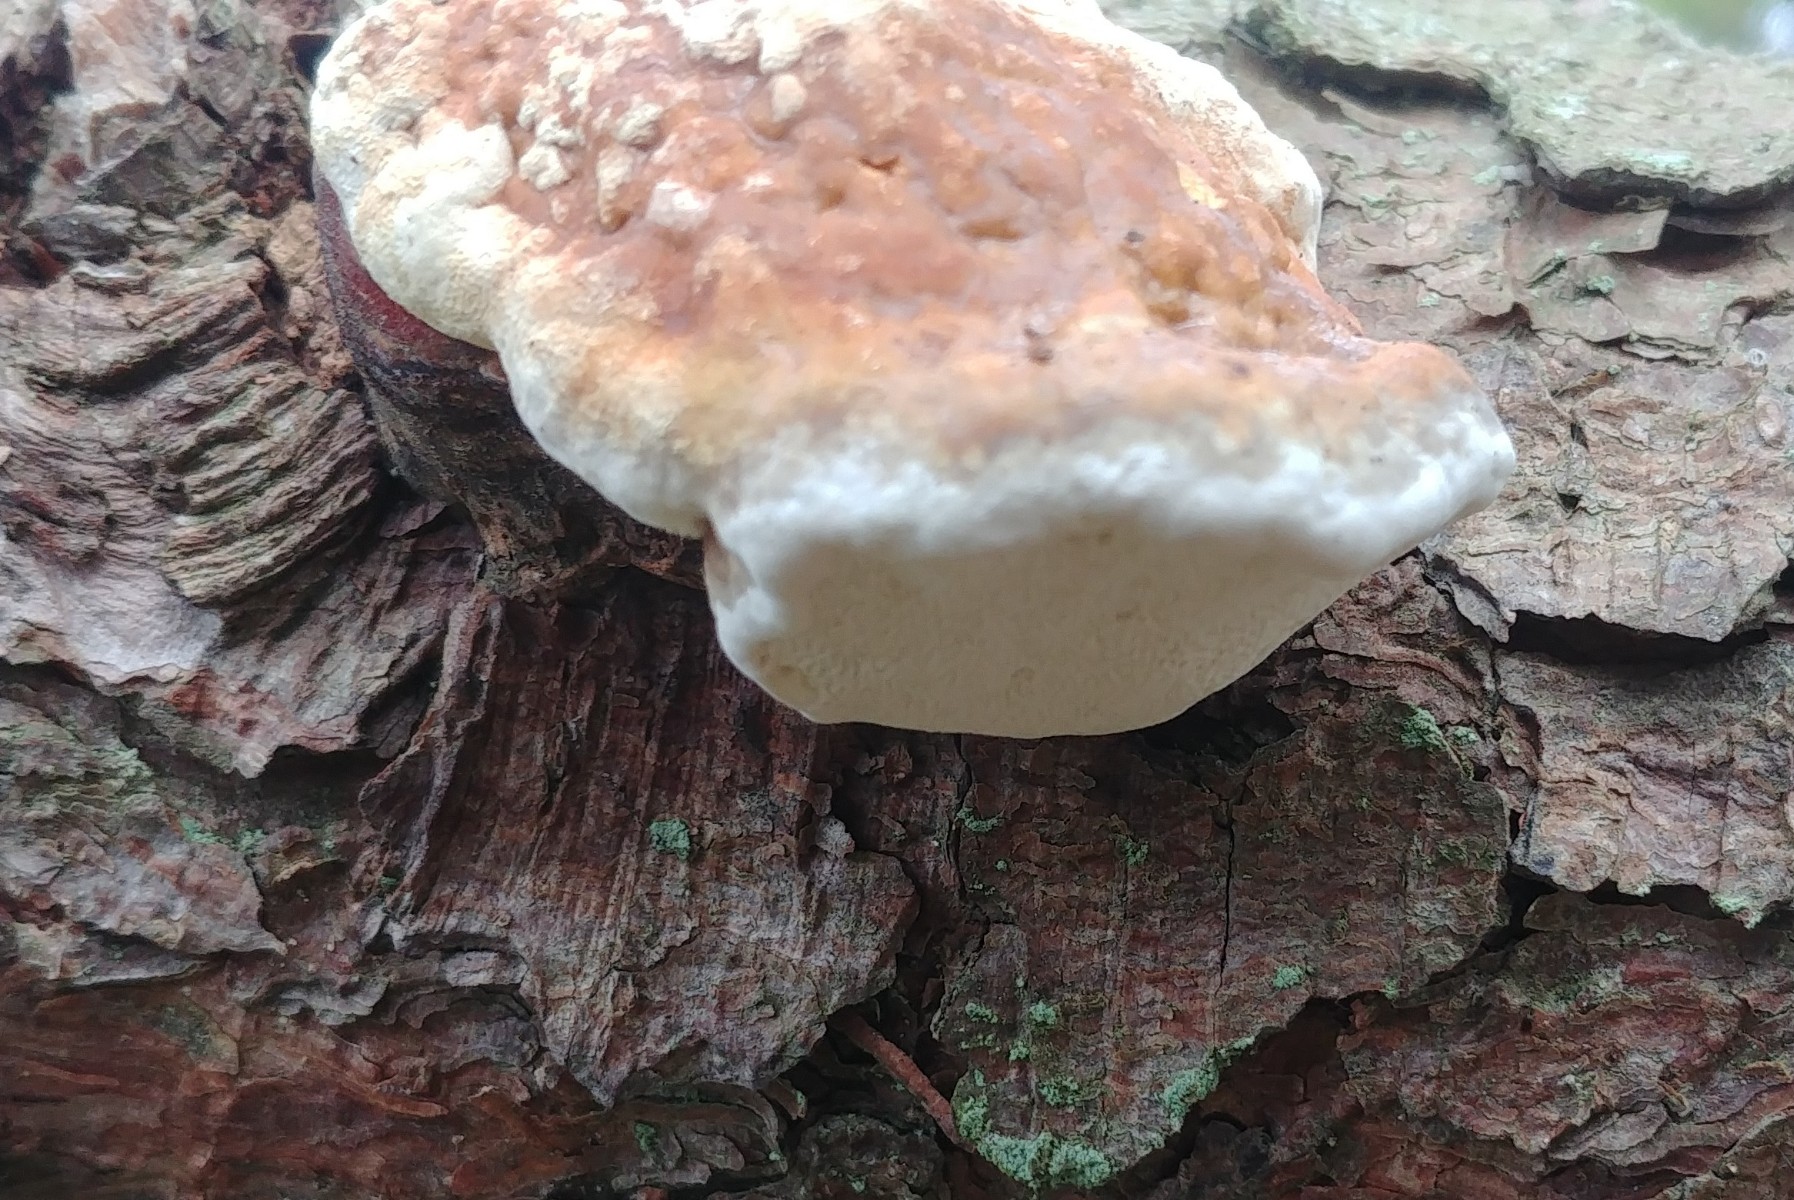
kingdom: Fungi
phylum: Basidiomycota
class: Agaricomycetes
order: Polyporales
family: Fomitopsidaceae
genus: Fomitopsis
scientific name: Fomitopsis pinicola
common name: randbæltet hovporesvamp
